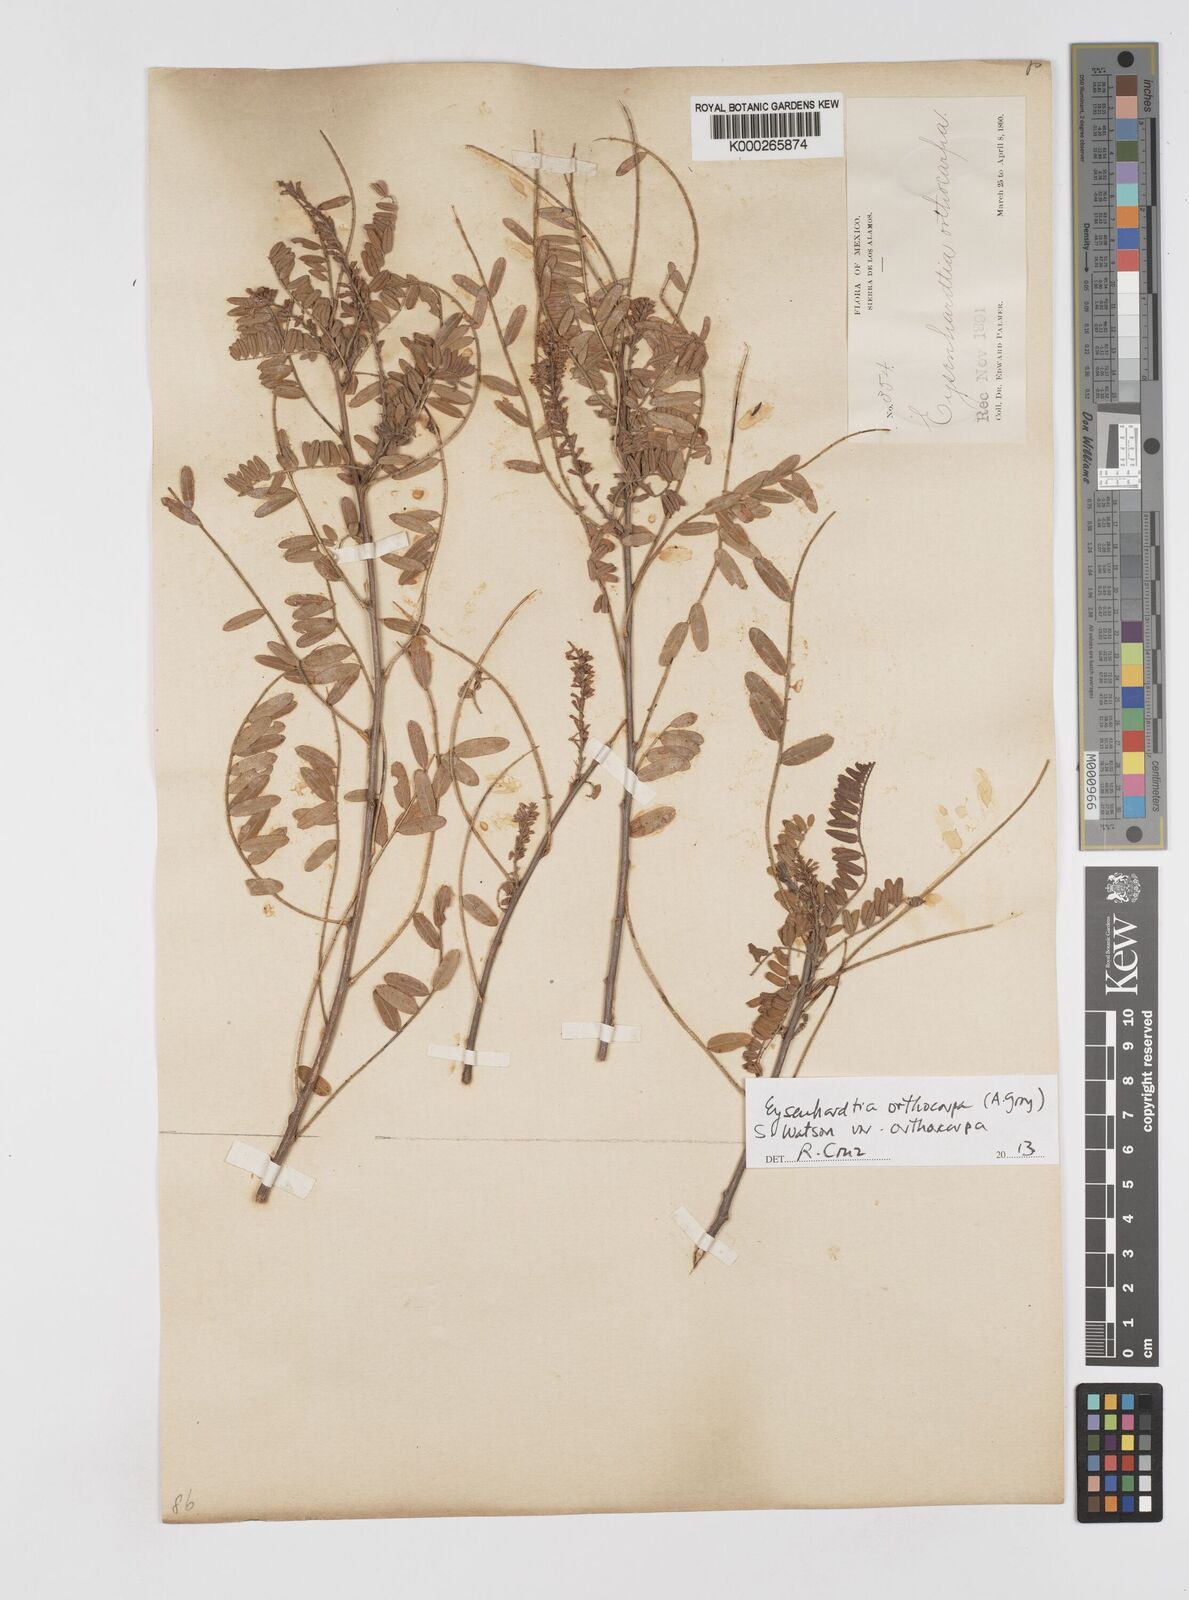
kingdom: Plantae
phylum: Tracheophyta
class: Magnoliopsida
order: Fabales
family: Fabaceae
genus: Eysenhardtia
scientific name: Eysenhardtia orthocarpa
